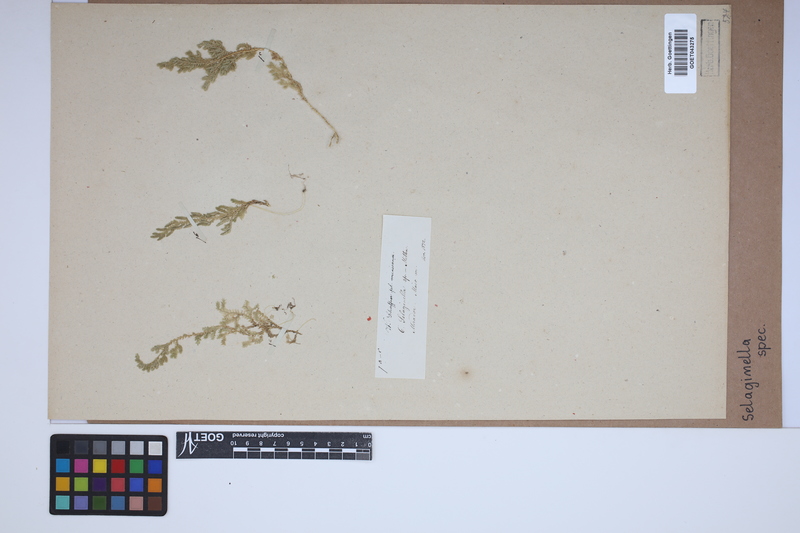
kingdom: Plantae
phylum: Tracheophyta
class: Lycopodiopsida
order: Selaginellales
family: Selaginellaceae
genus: Selaginella
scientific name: Selaginella
